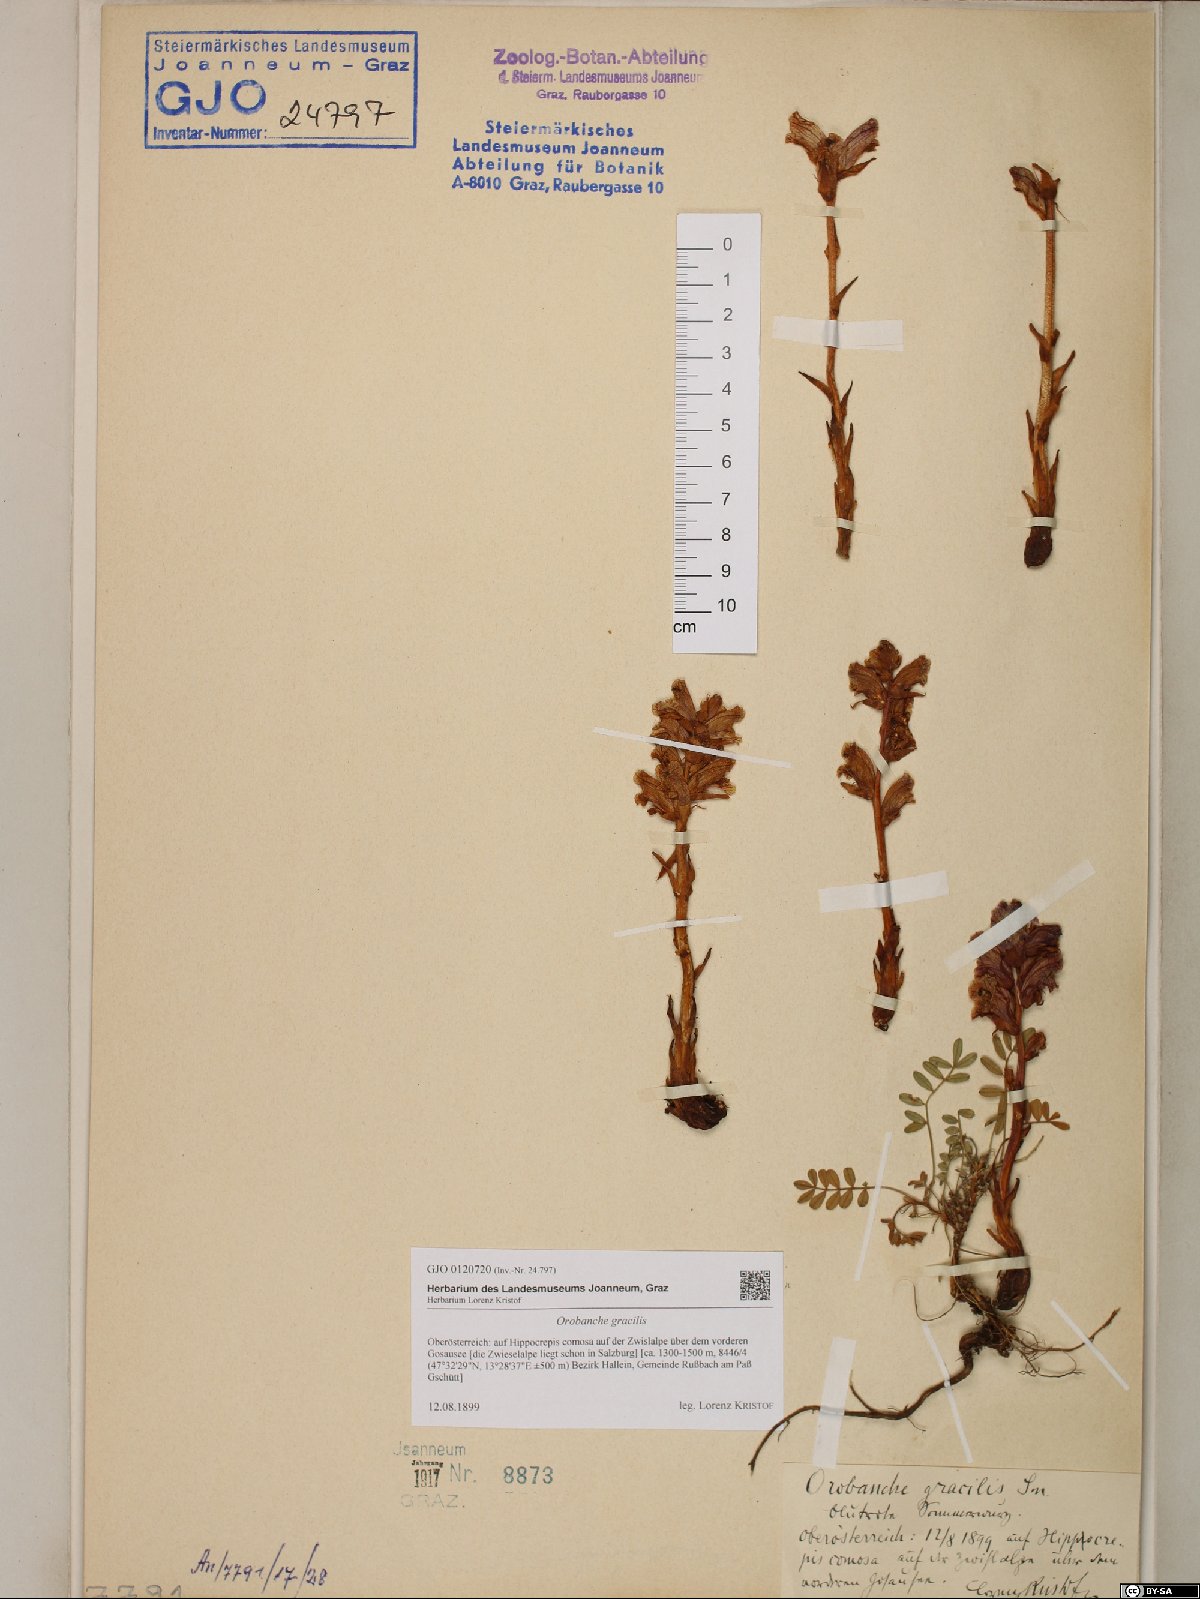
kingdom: Plantae
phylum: Tracheophyta
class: Magnoliopsida
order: Lamiales
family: Orobanchaceae
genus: Orobanche
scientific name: Orobanche gracilis
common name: Slender broomrape
